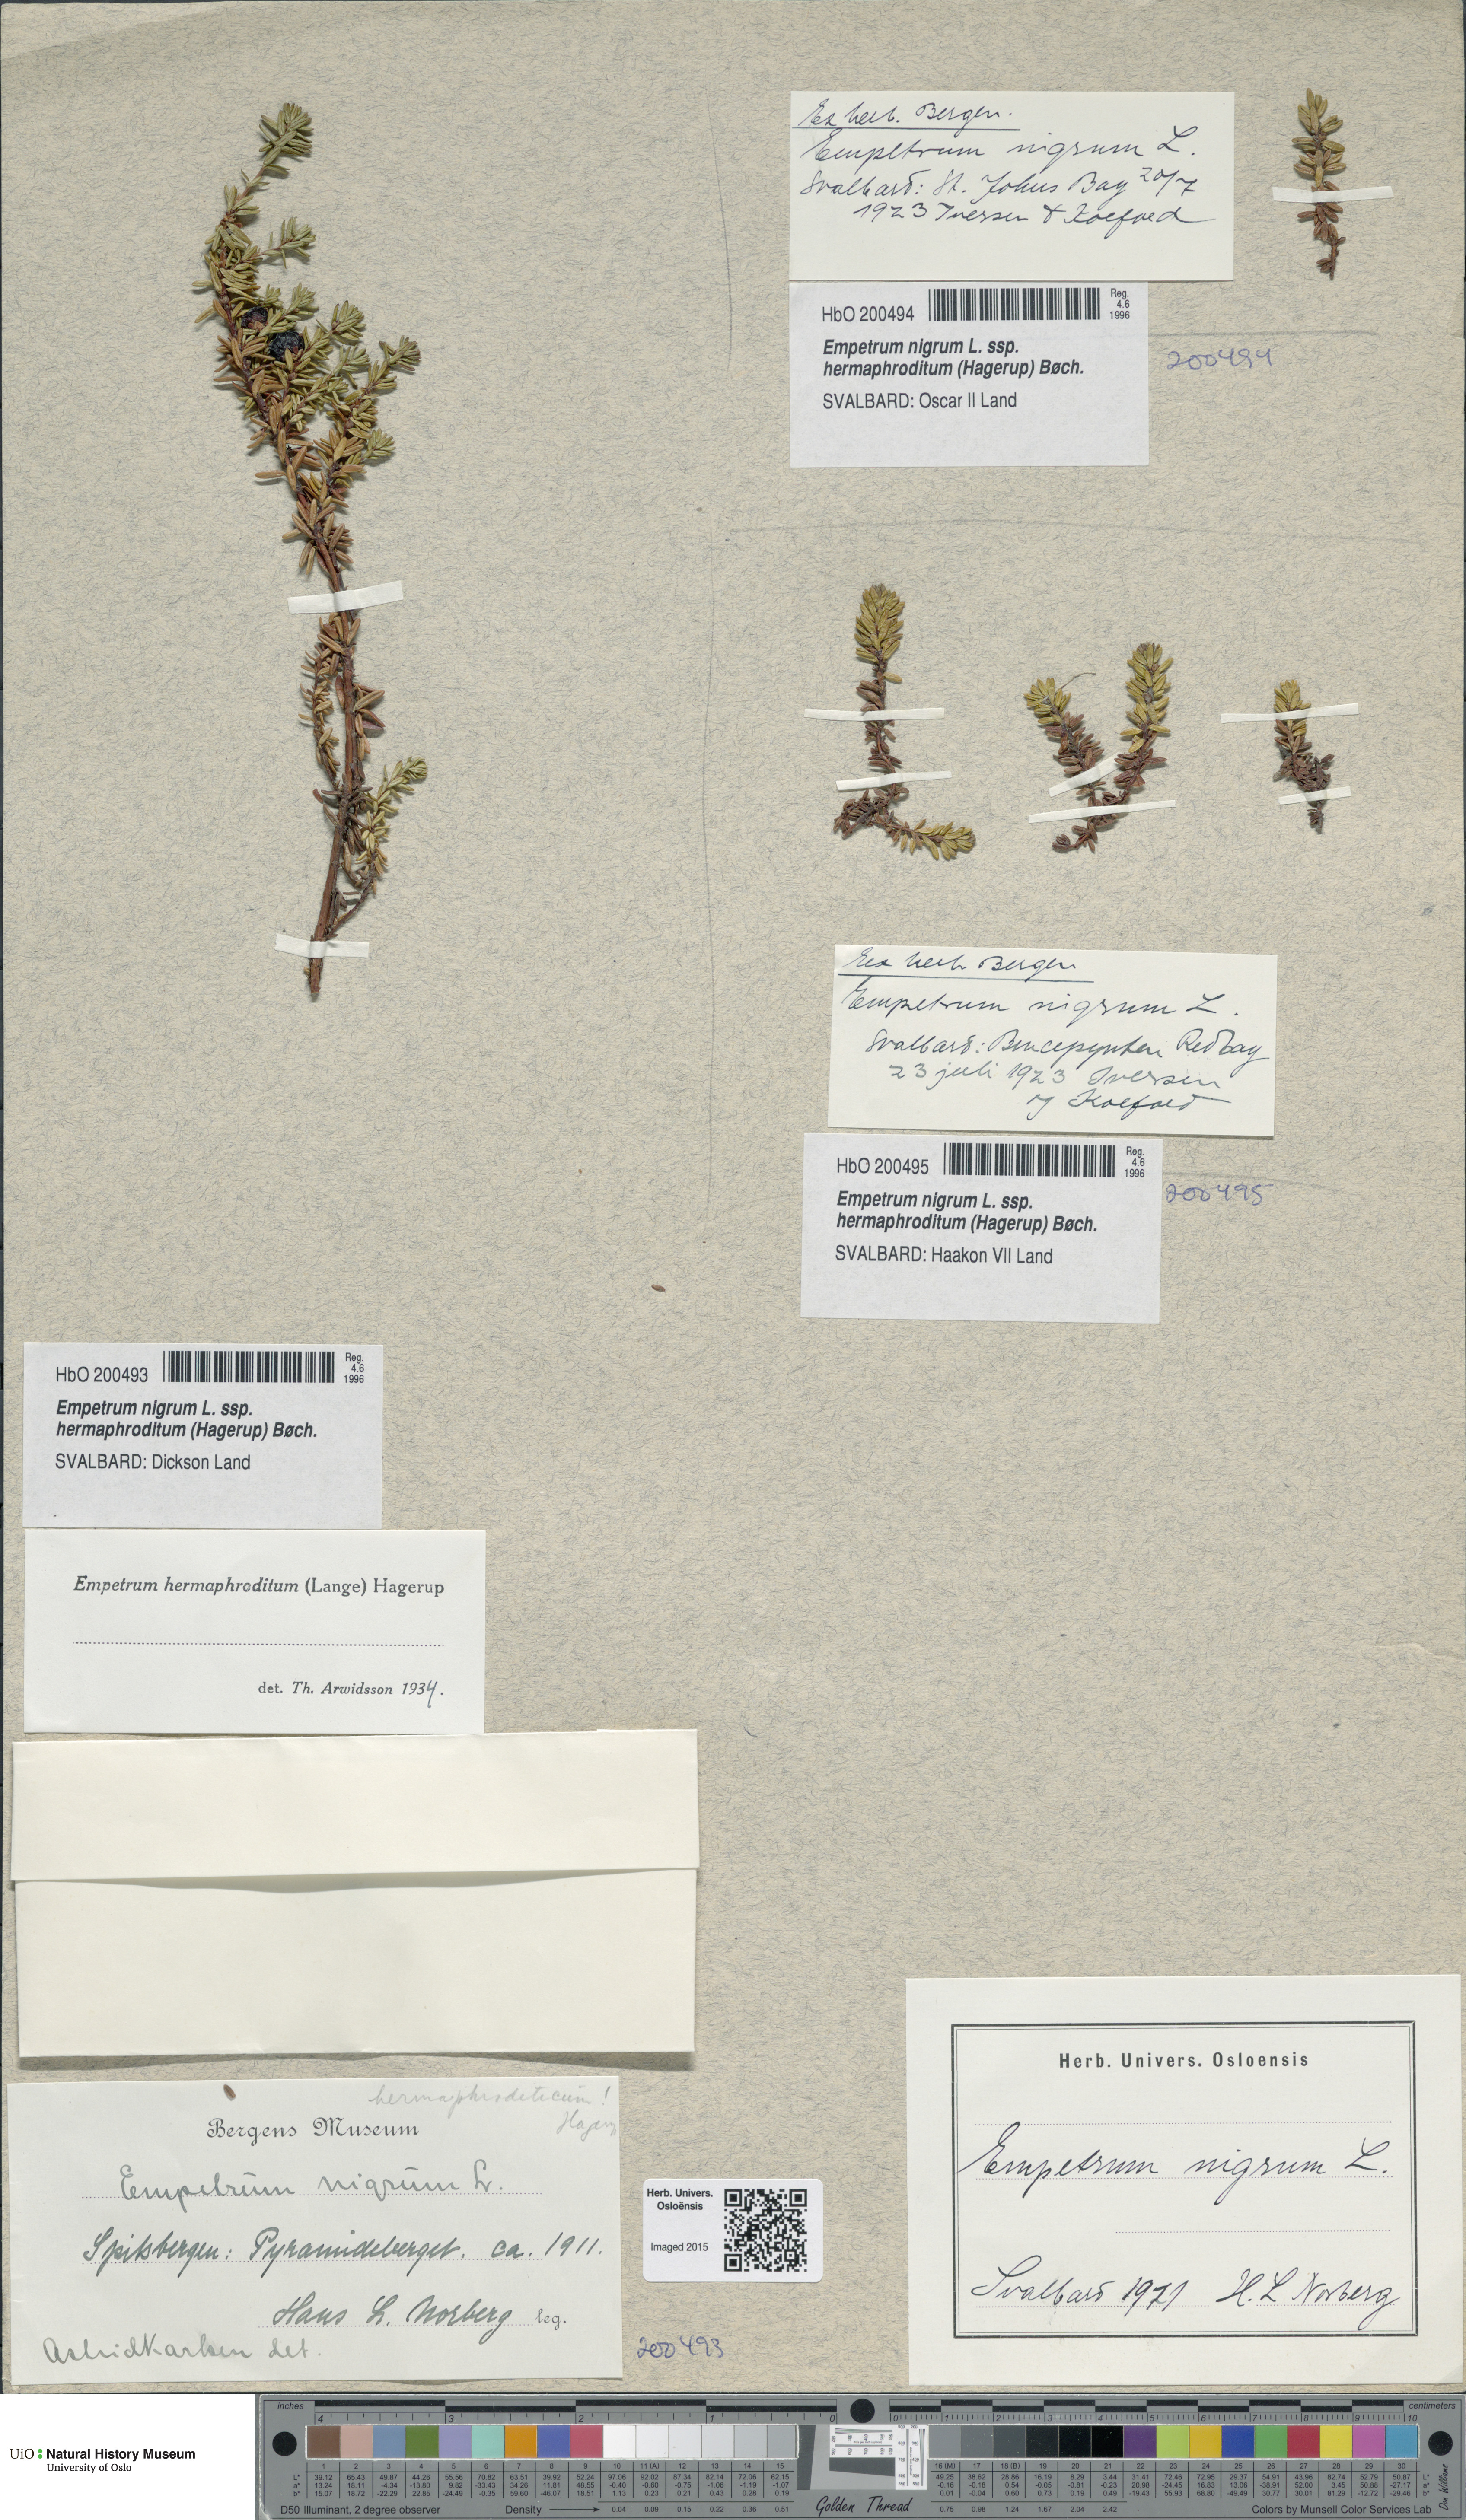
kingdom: Plantae
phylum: Tracheophyta
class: Magnoliopsida
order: Ericales
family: Ericaceae
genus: Empetrum
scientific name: Empetrum hermaphroditum
